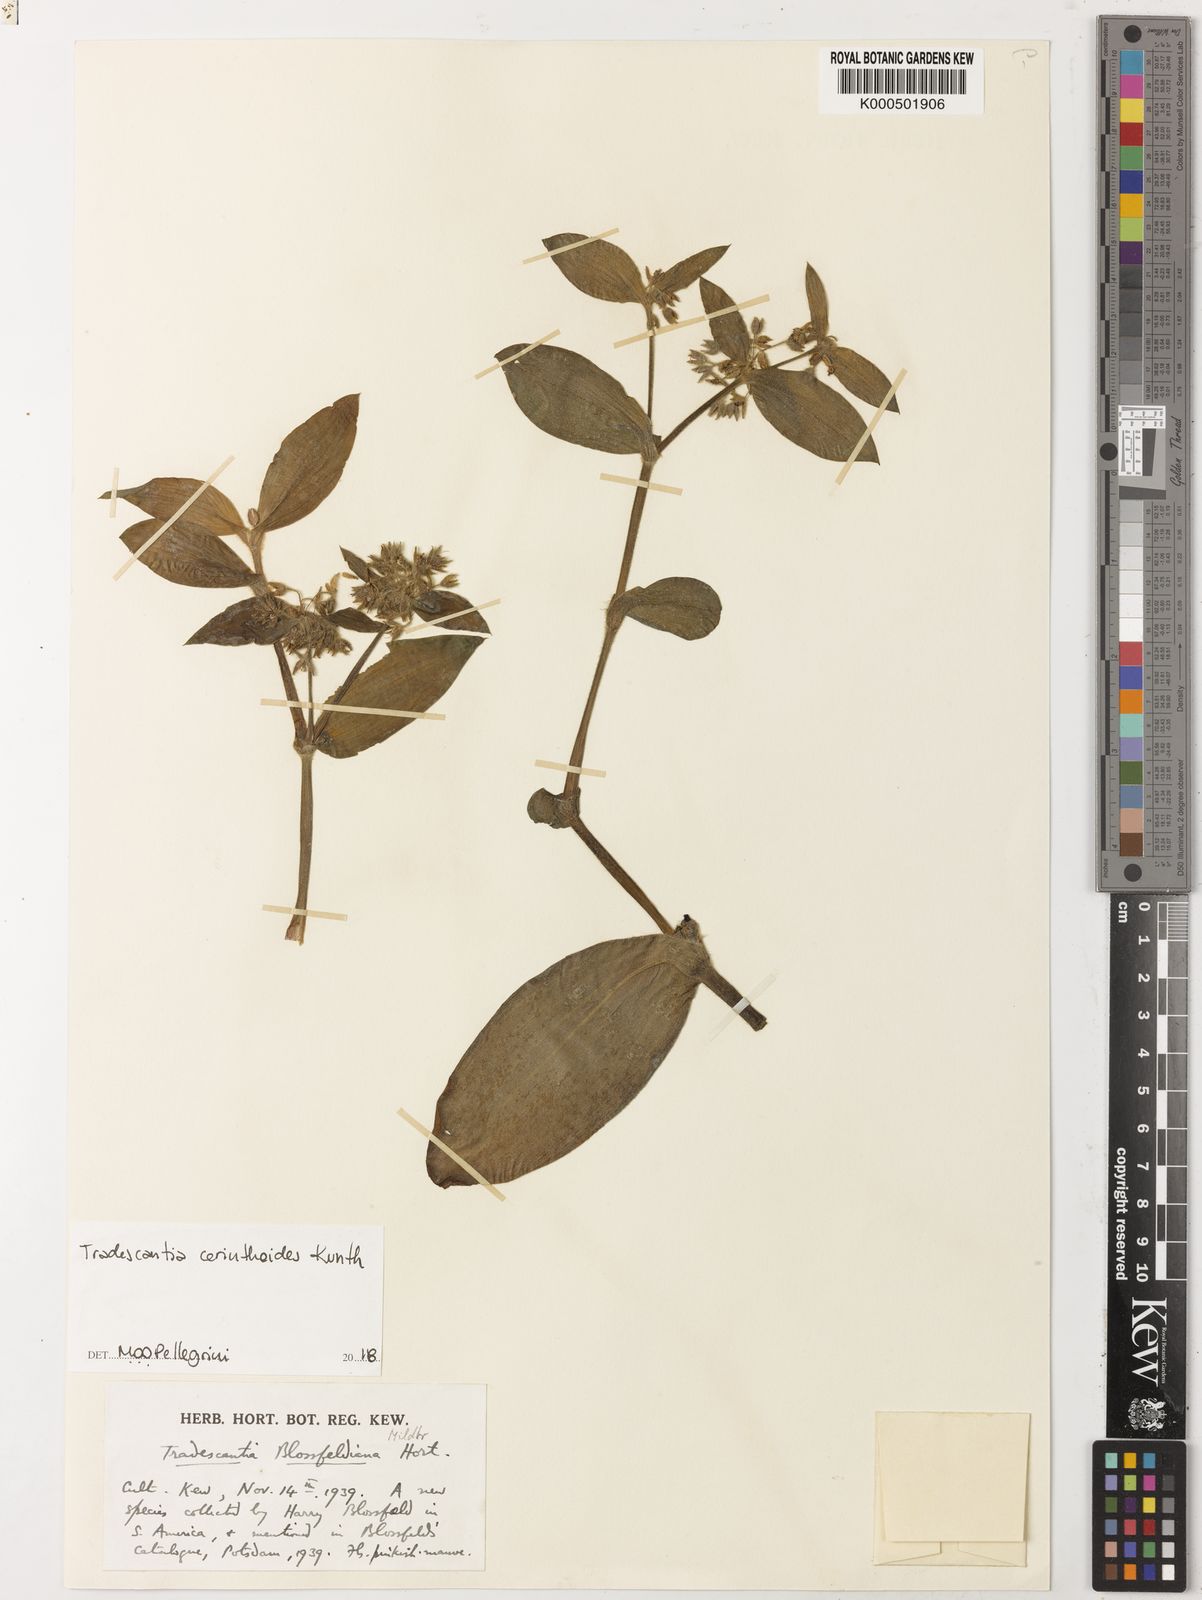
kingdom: Plantae
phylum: Tracheophyta
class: Liliopsida
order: Commelinales
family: Commelinaceae
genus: Tradescantia
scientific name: Tradescantia cerinthoides
